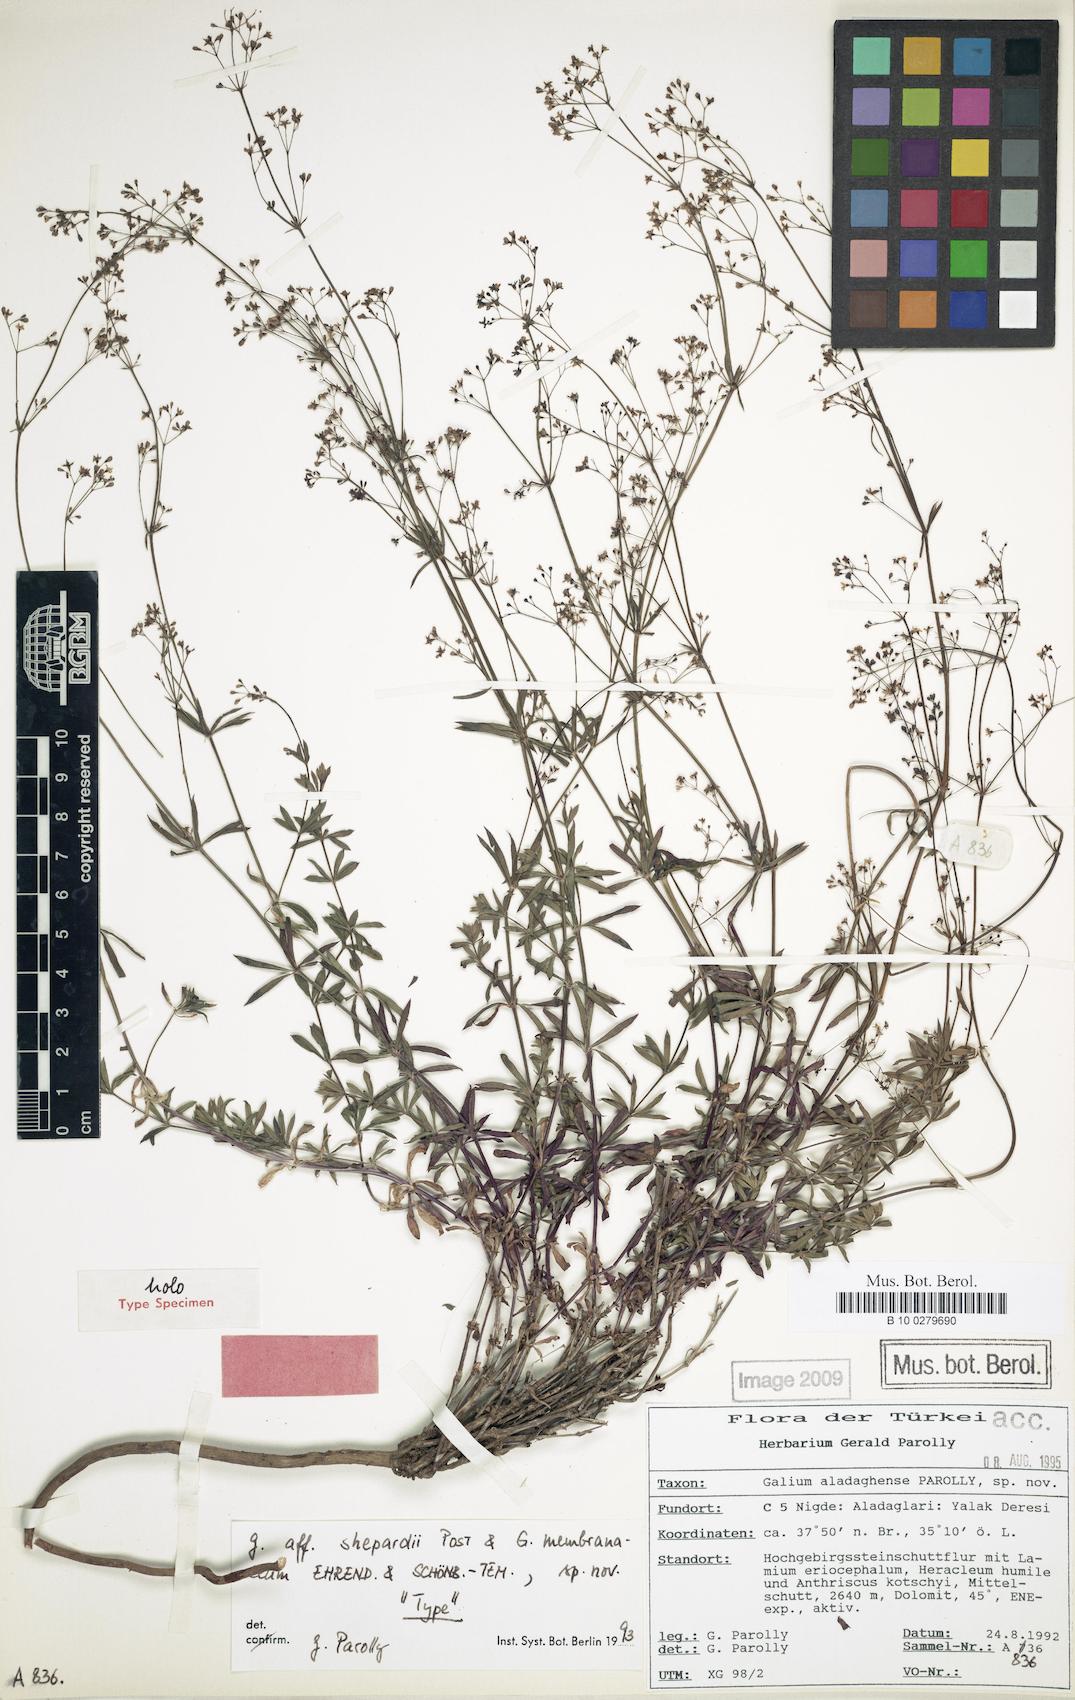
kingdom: Plantae
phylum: Tracheophyta
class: Magnoliopsida
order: Gentianales
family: Rubiaceae
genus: Galium
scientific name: Galium aladaghense
